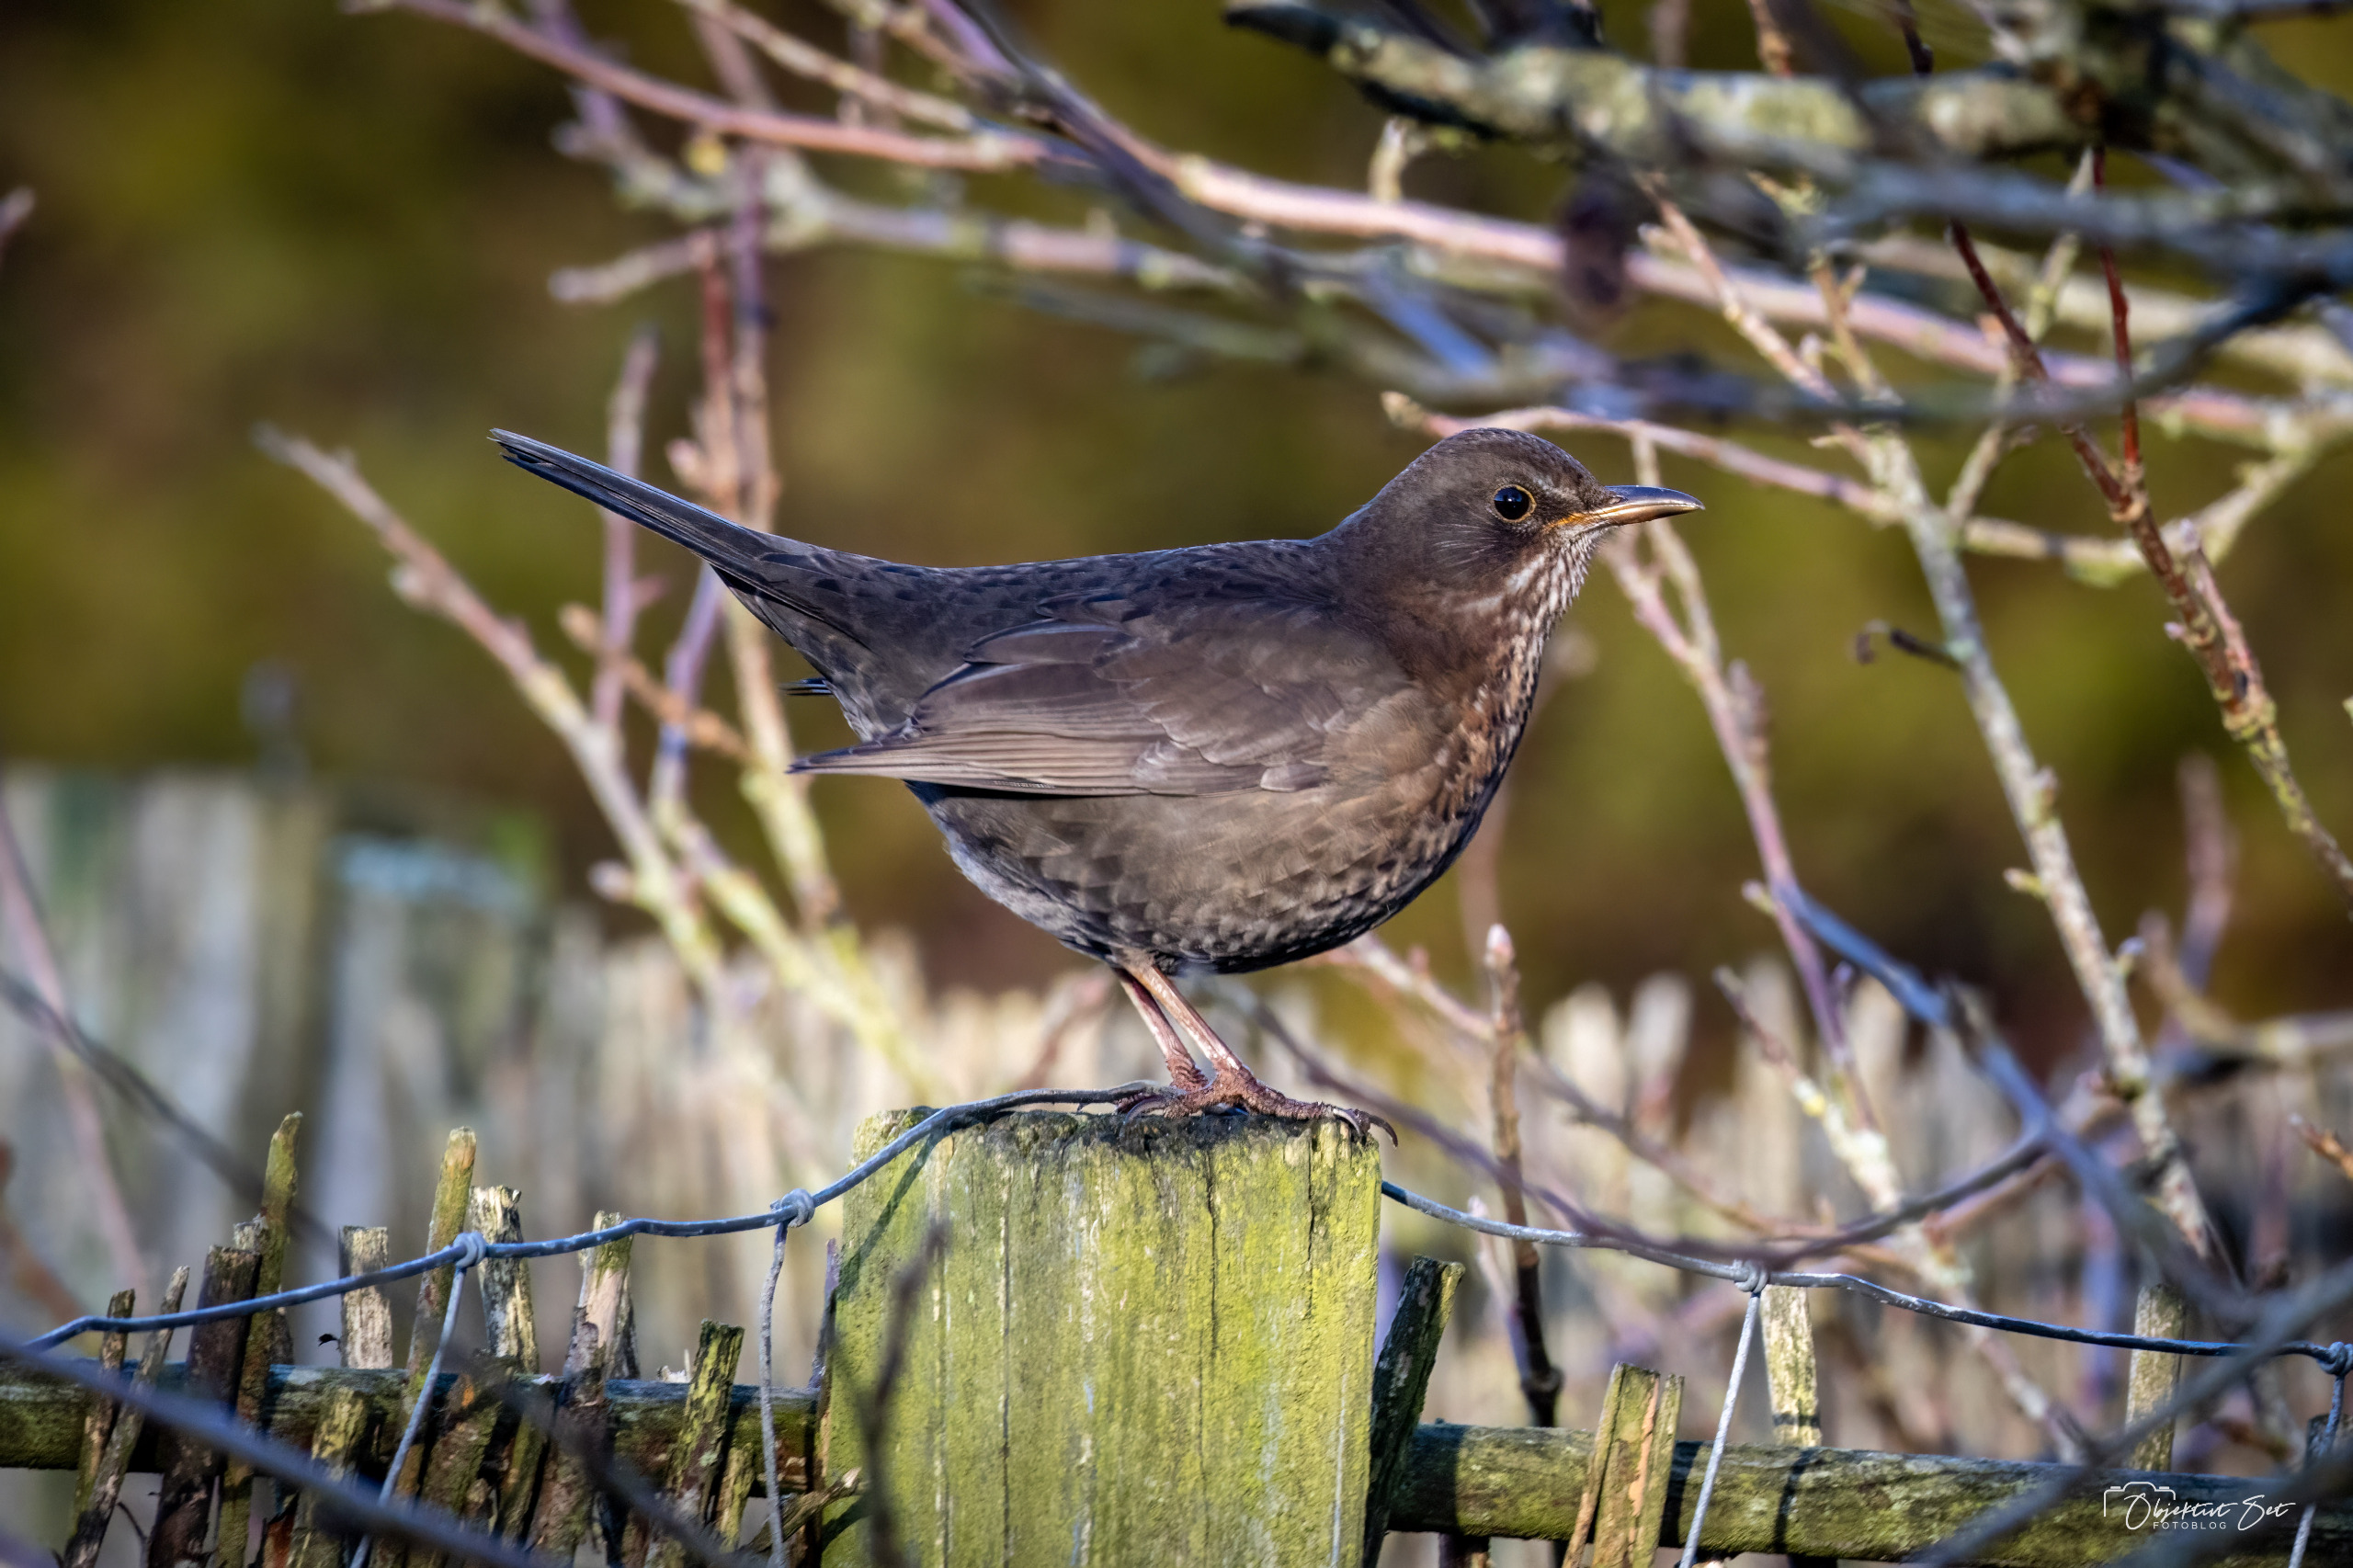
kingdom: Animalia
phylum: Chordata
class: Aves
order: Passeriformes
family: Turdidae
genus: Turdus
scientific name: Turdus merula
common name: Solsort
